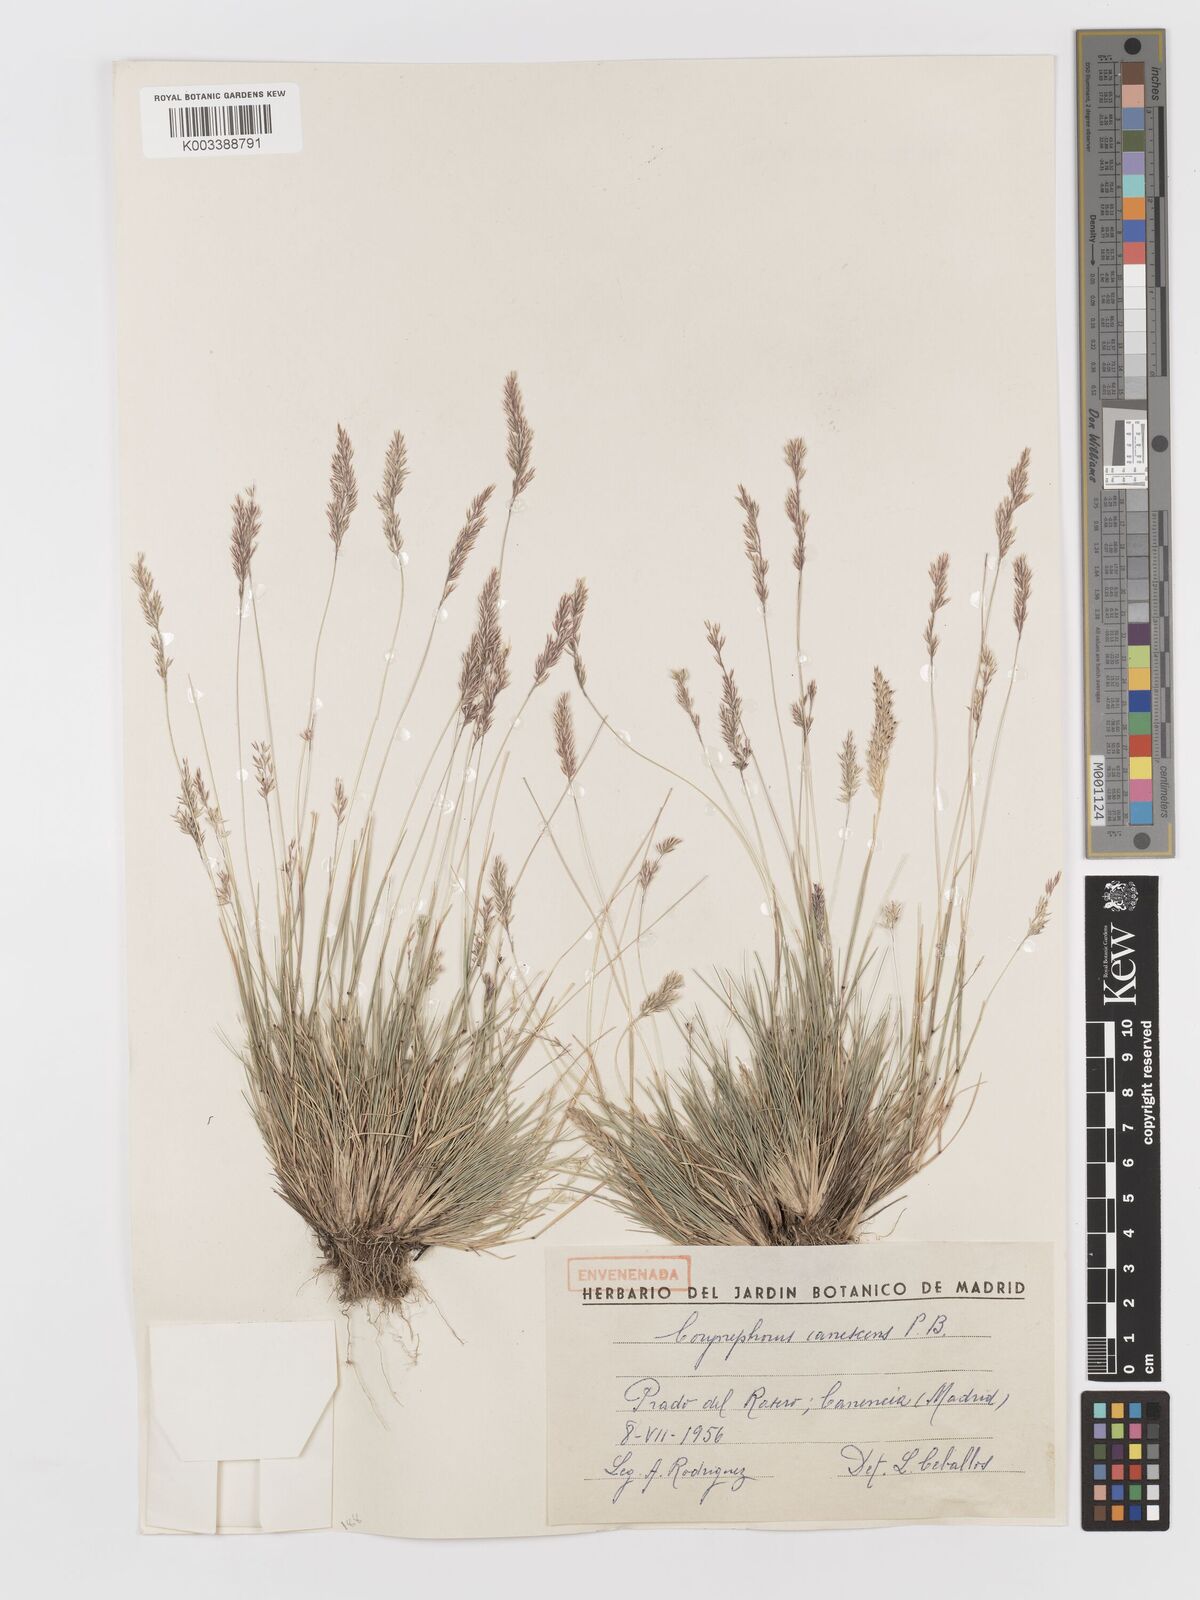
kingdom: Plantae
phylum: Tracheophyta
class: Liliopsida
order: Poales
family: Poaceae
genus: Corynephorus
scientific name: Corynephorus canescens
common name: Grey hair-grass
